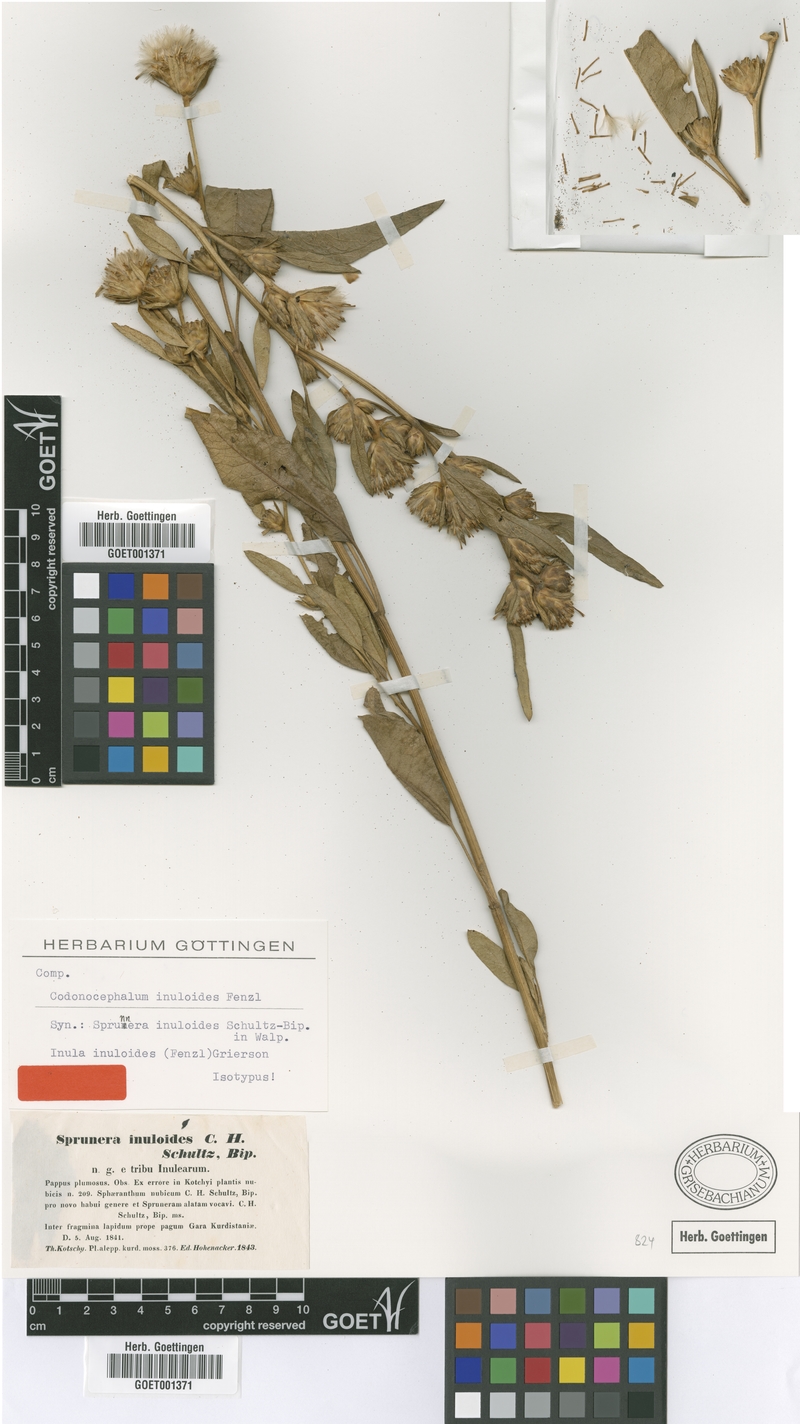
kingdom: Plantae
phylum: Tracheophyta
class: Magnoliopsida
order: Asterales
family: Asteraceae
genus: Inula
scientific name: Inula inuloides
